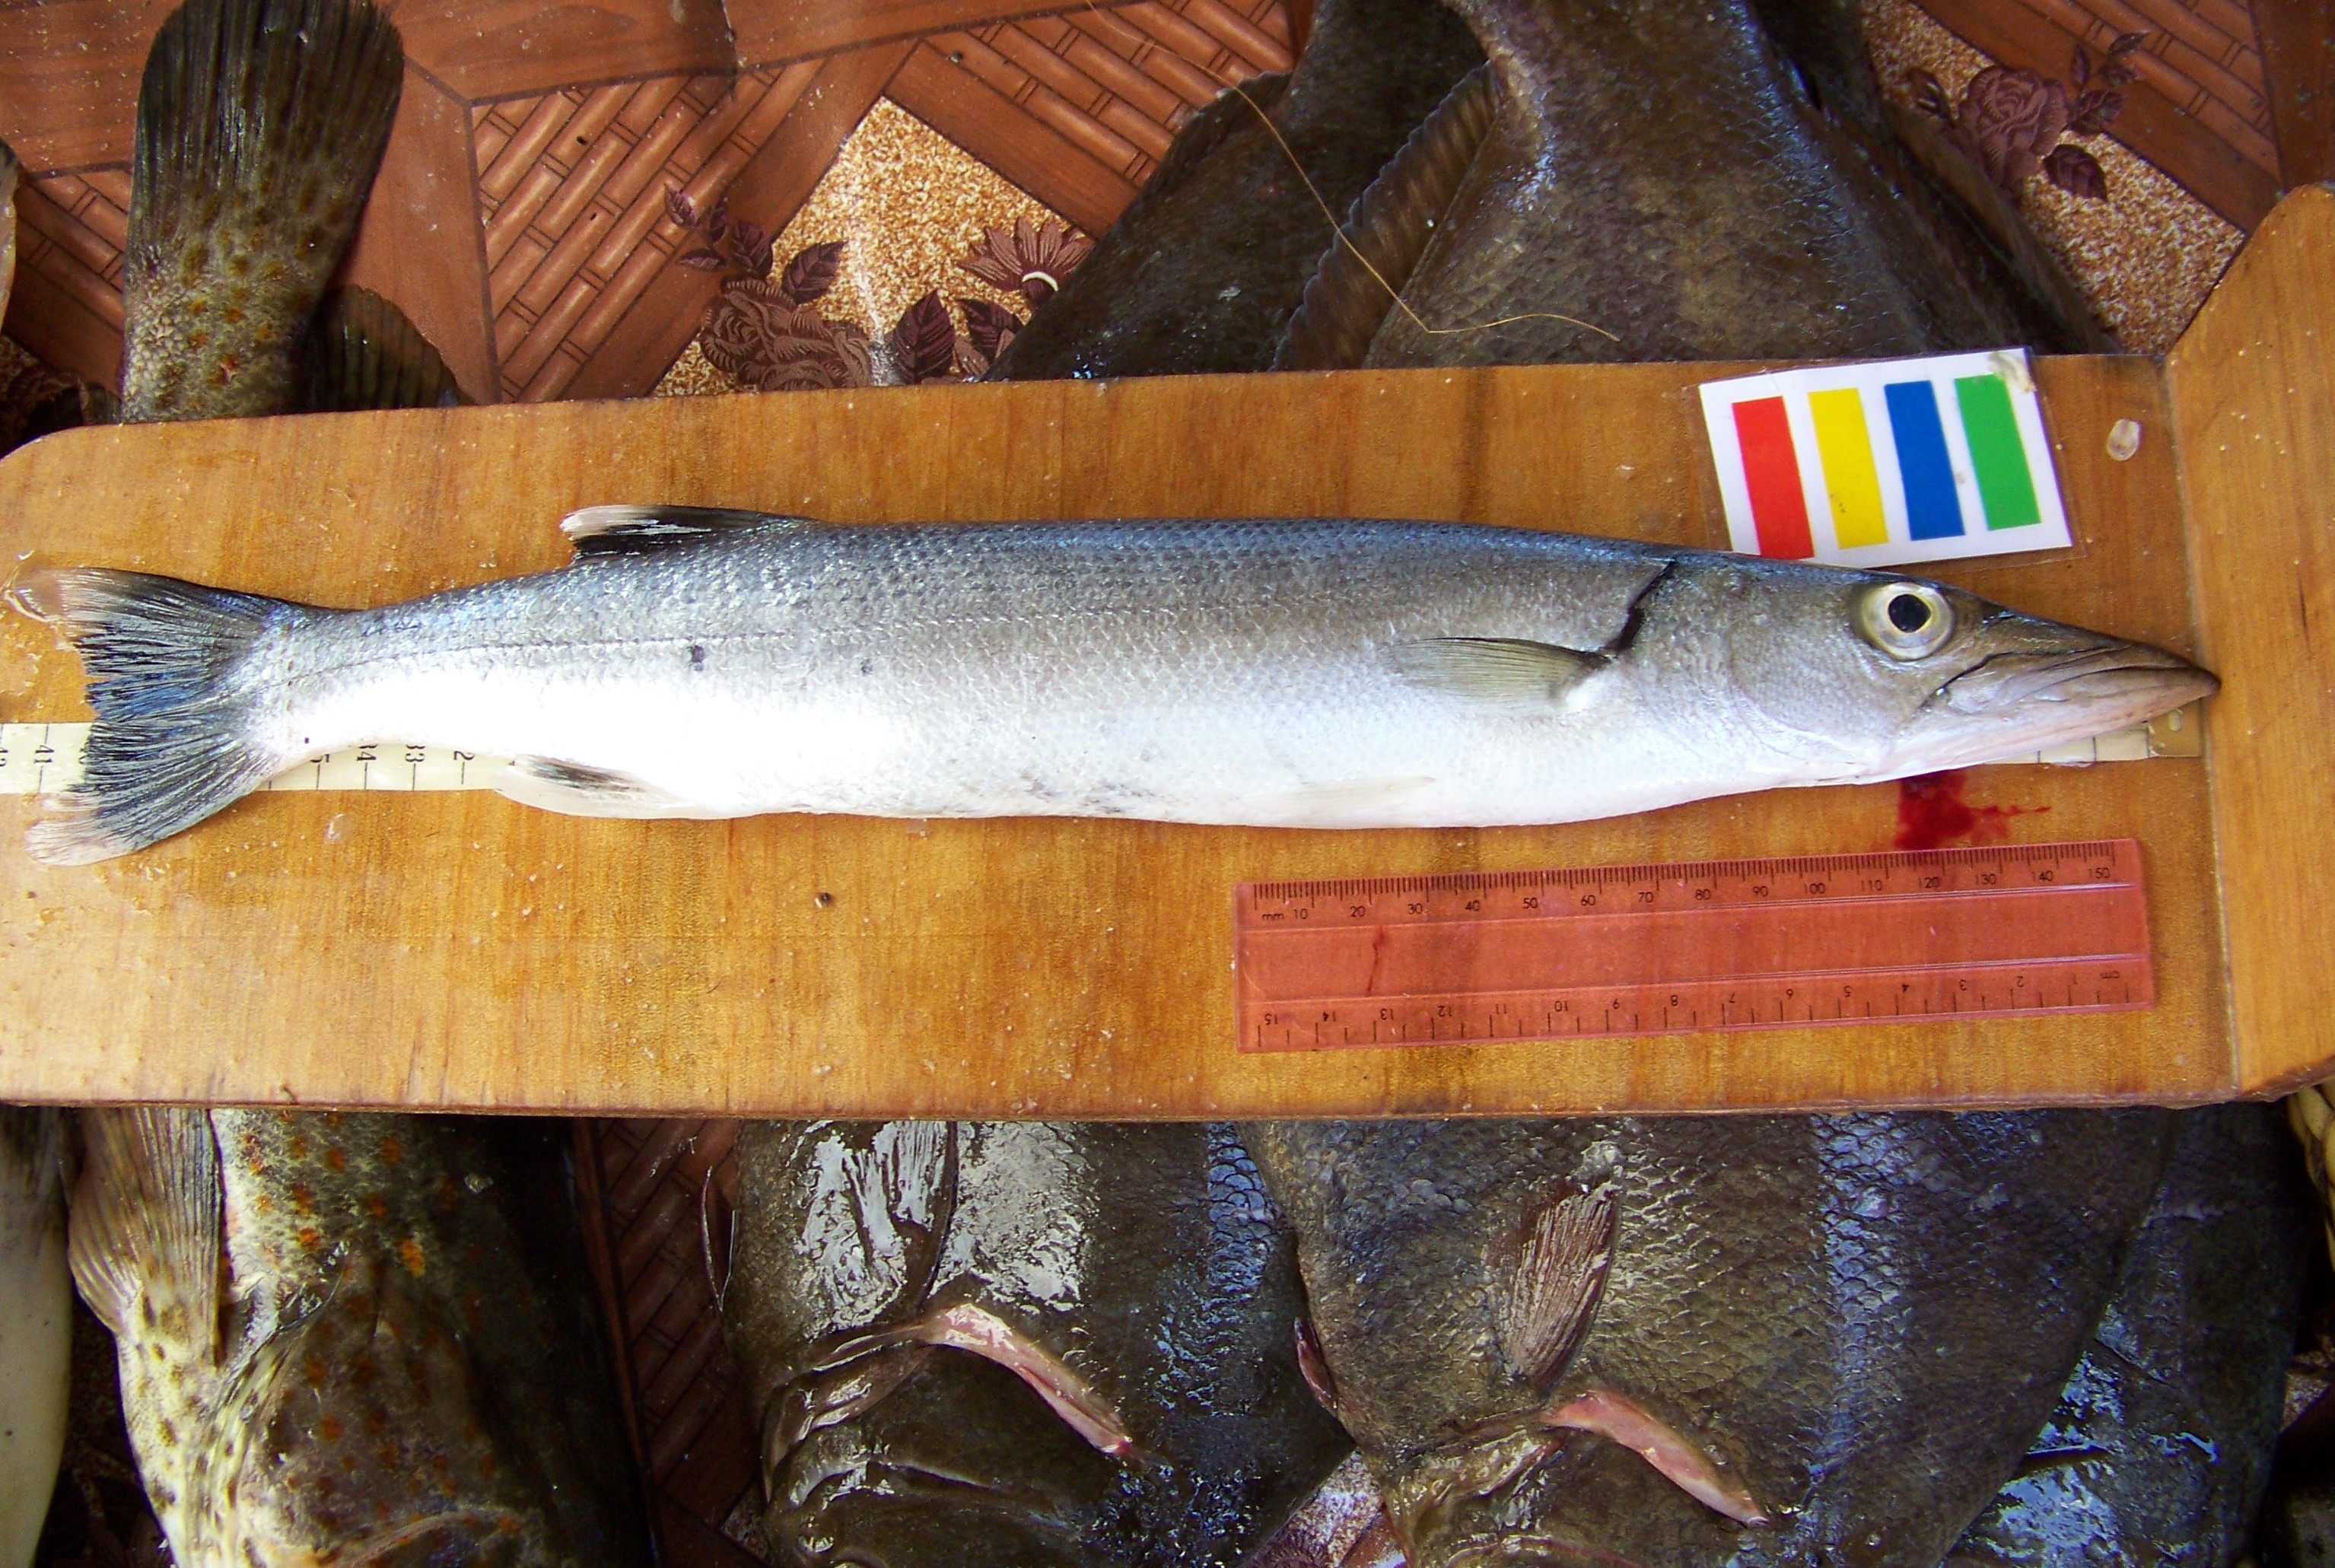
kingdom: Animalia
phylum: Chordata
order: Perciformes
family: Sphyraenidae
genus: Sphyraena
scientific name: Sphyraena picudilla
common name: Sennet
